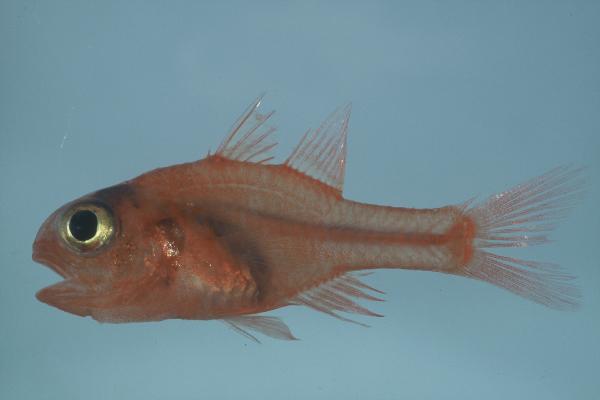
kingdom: Animalia
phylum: Chordata
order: Perciformes
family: Apogonidae
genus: Apogon
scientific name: Apogon indicus
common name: Indian cardinalfish
